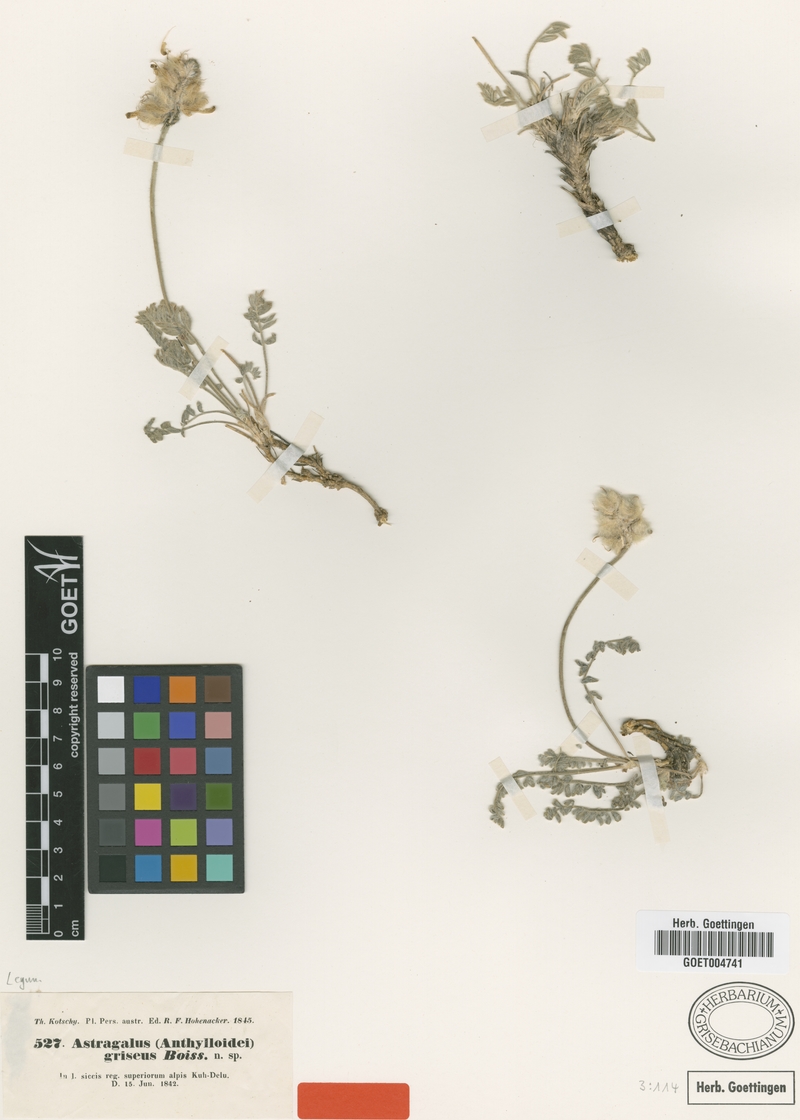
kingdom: Plantae
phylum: Tracheophyta
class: Magnoliopsida
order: Fabales
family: Fabaceae
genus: Astragalus
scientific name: Astragalus griseus
